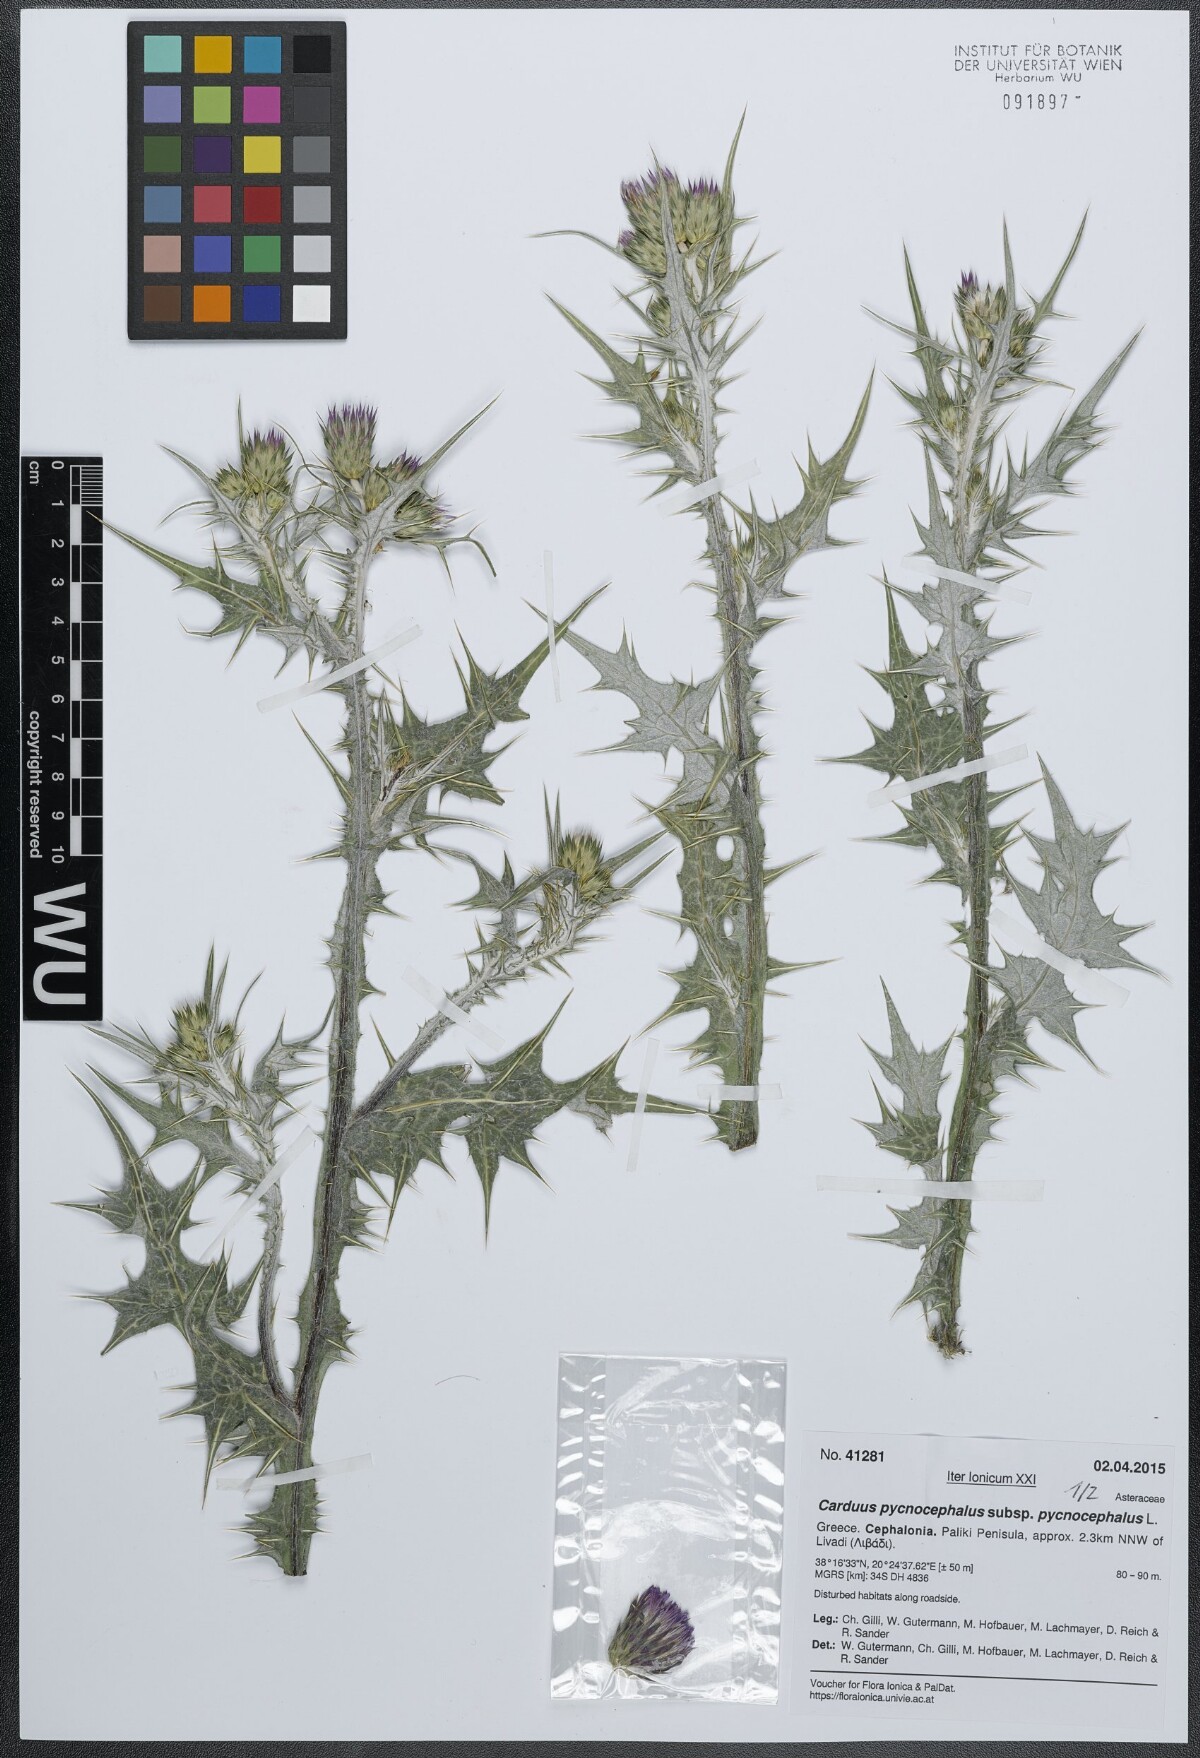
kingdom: Plantae
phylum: Tracheophyta
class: Magnoliopsida
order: Asterales
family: Asteraceae
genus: Carduus
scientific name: Carduus pycnocephalus
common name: Plymouth thistle
